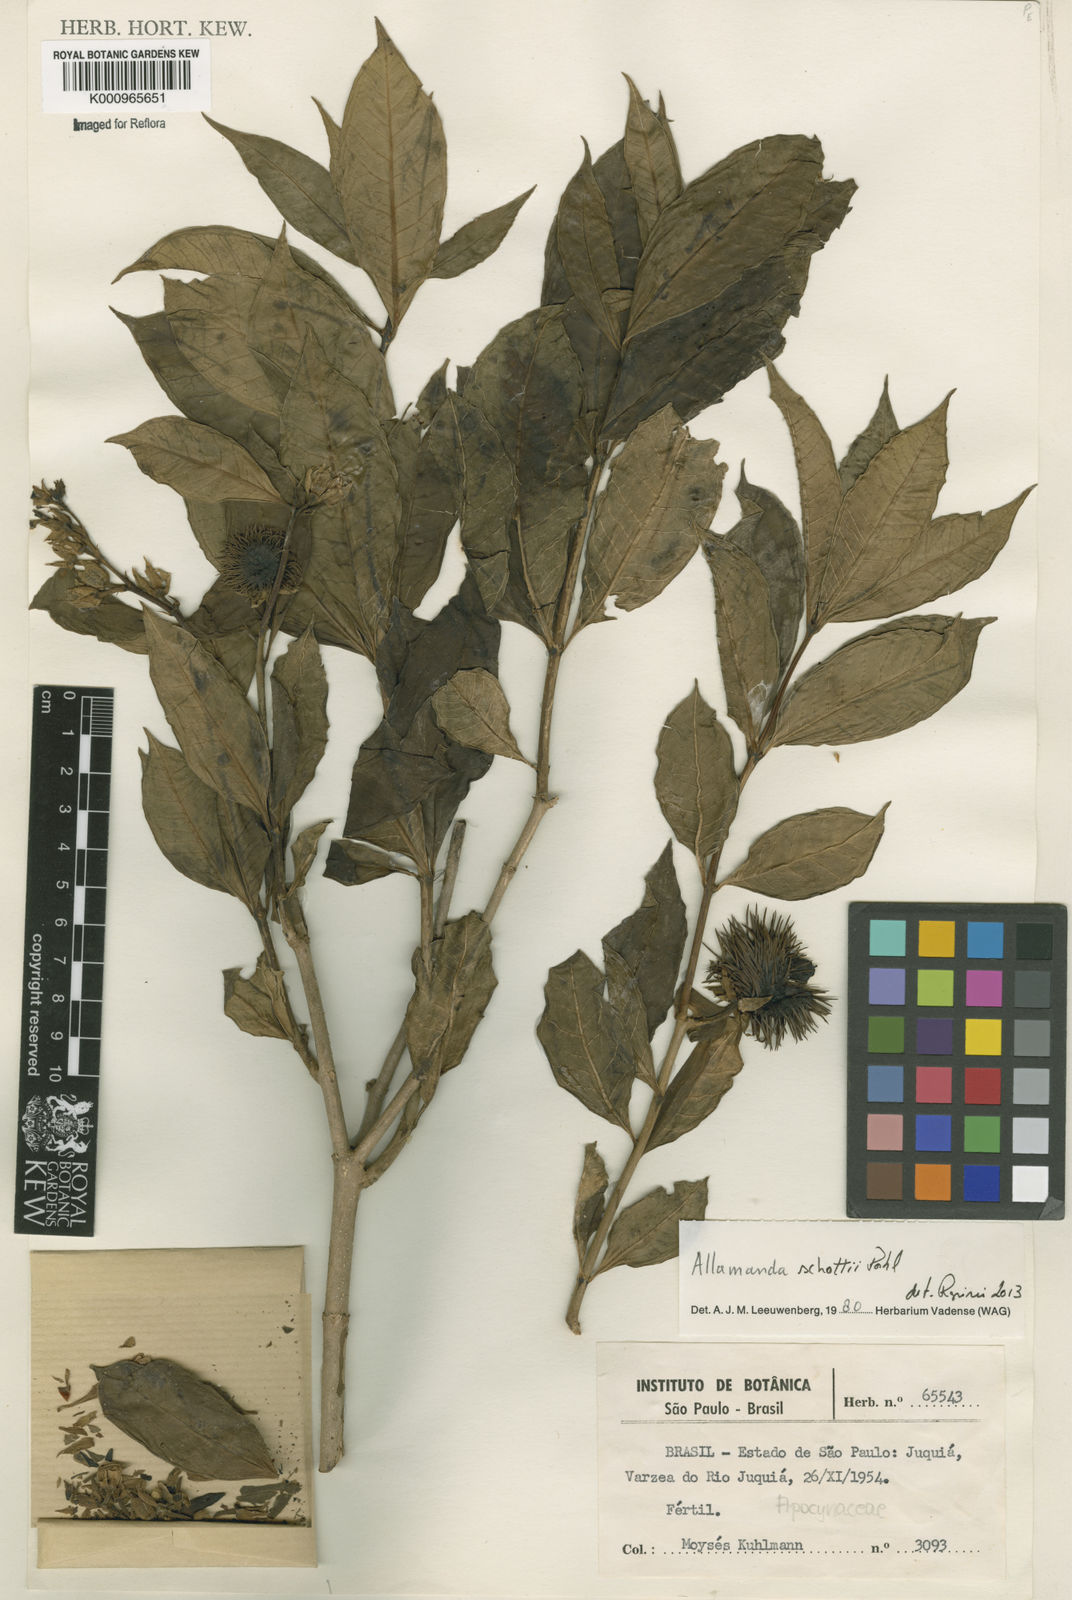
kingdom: Plantae
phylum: Tracheophyta
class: Magnoliopsida
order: Gentianales
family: Apocynaceae
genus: Allamanda
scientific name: Allamanda schottii
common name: Bush allamanda
